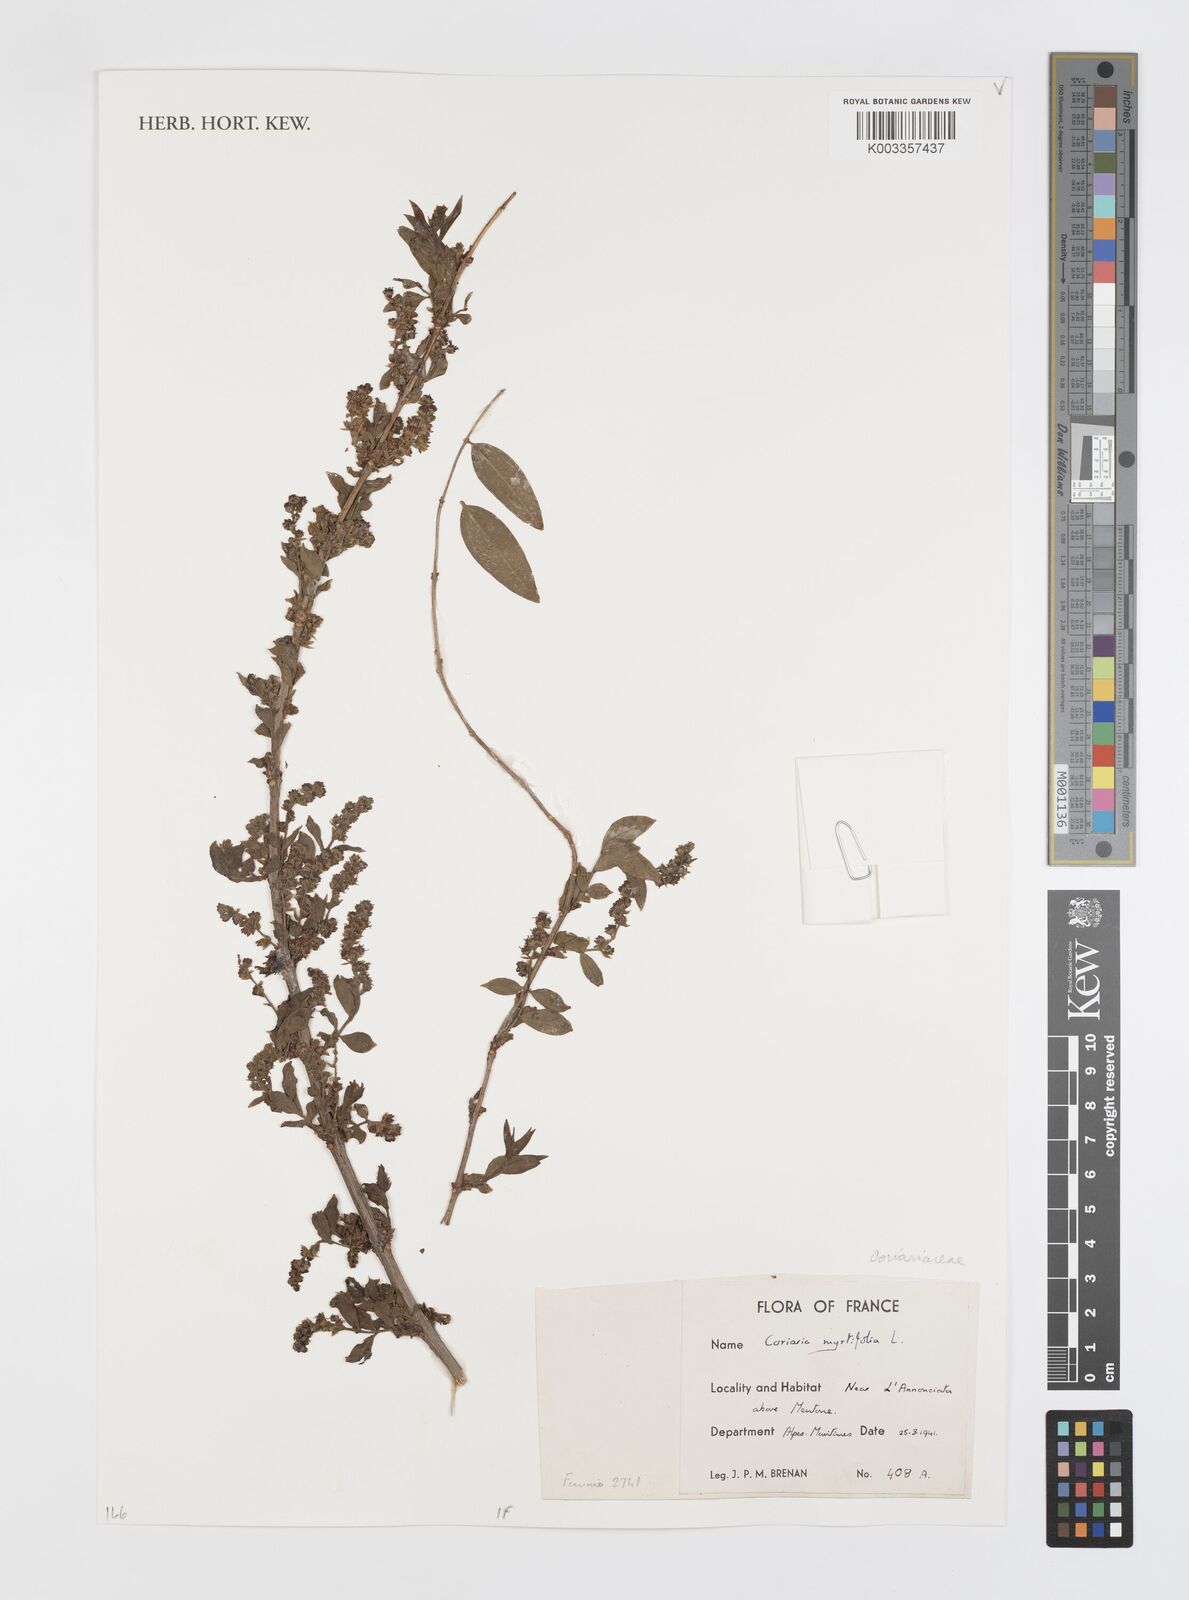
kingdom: Plantae
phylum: Tracheophyta
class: Magnoliopsida
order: Cucurbitales
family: Coriariaceae
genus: Coriaria
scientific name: Coriaria myrtifolia
